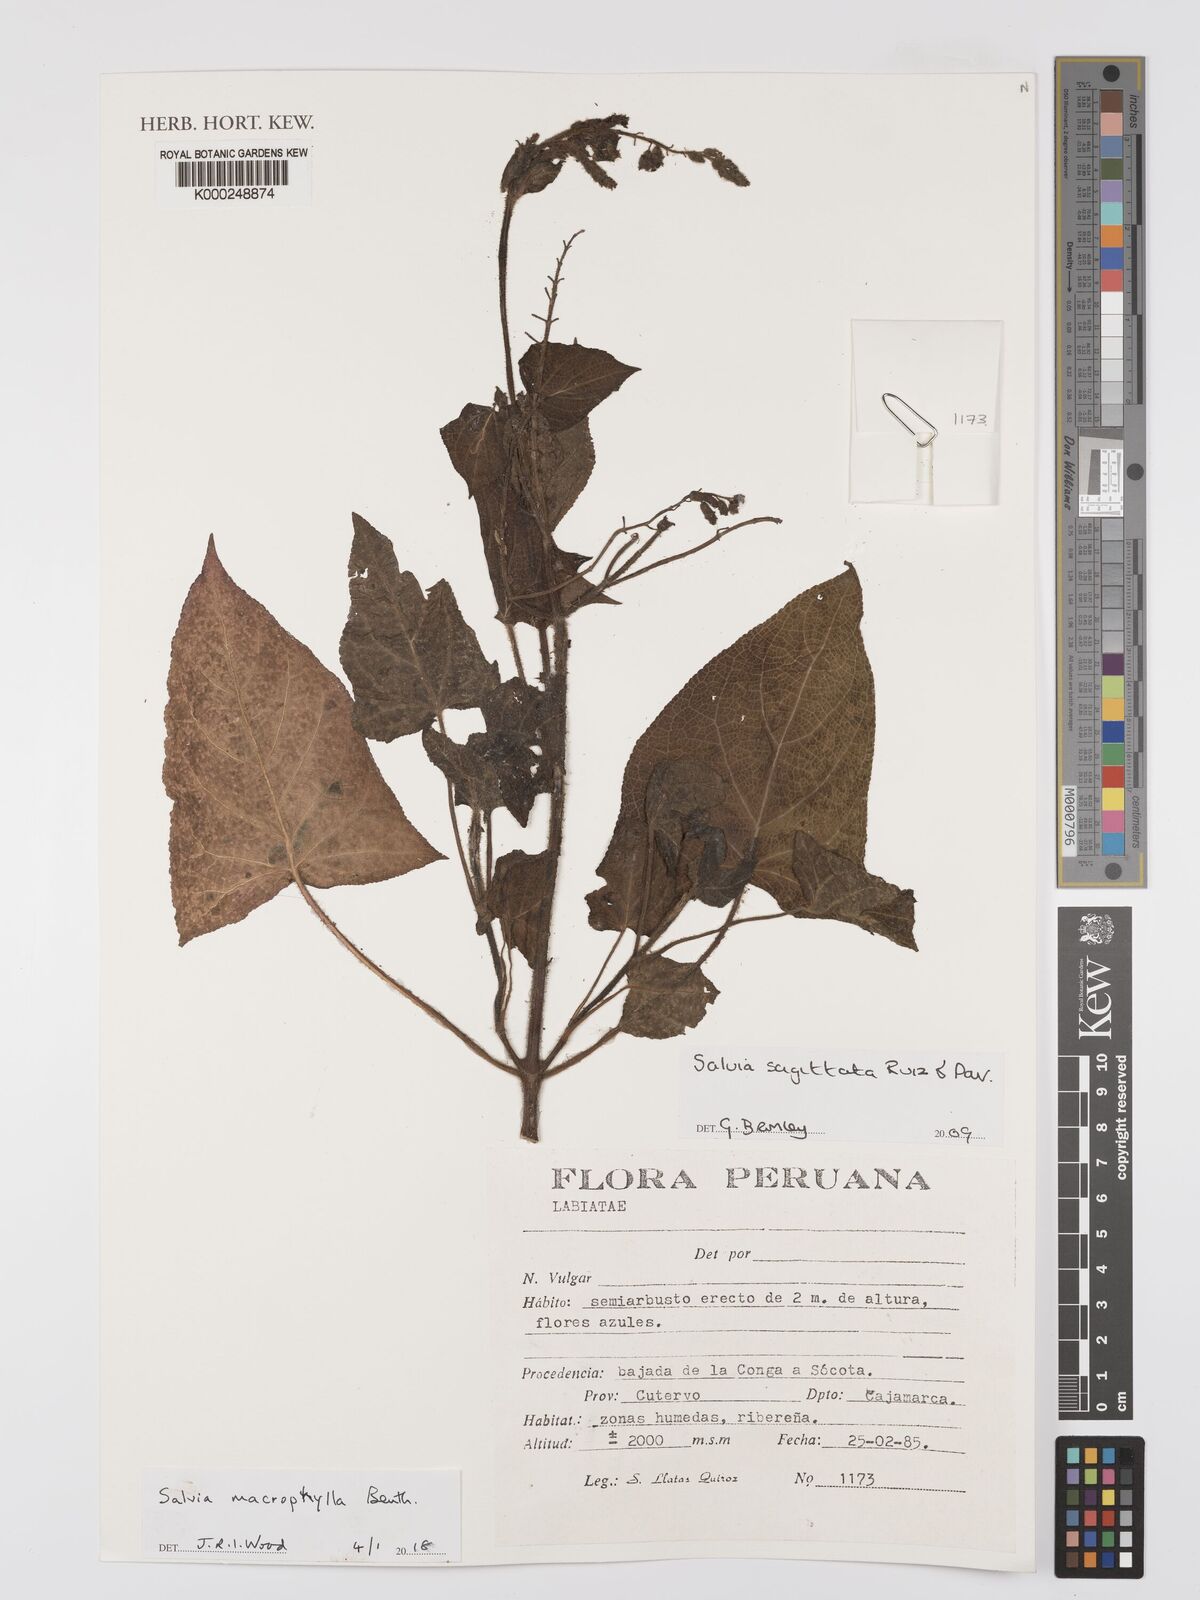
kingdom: Plantae
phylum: Tracheophyta
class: Magnoliopsida
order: Lamiales
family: Lamiaceae
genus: Salvia
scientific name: Salvia macrophylla
